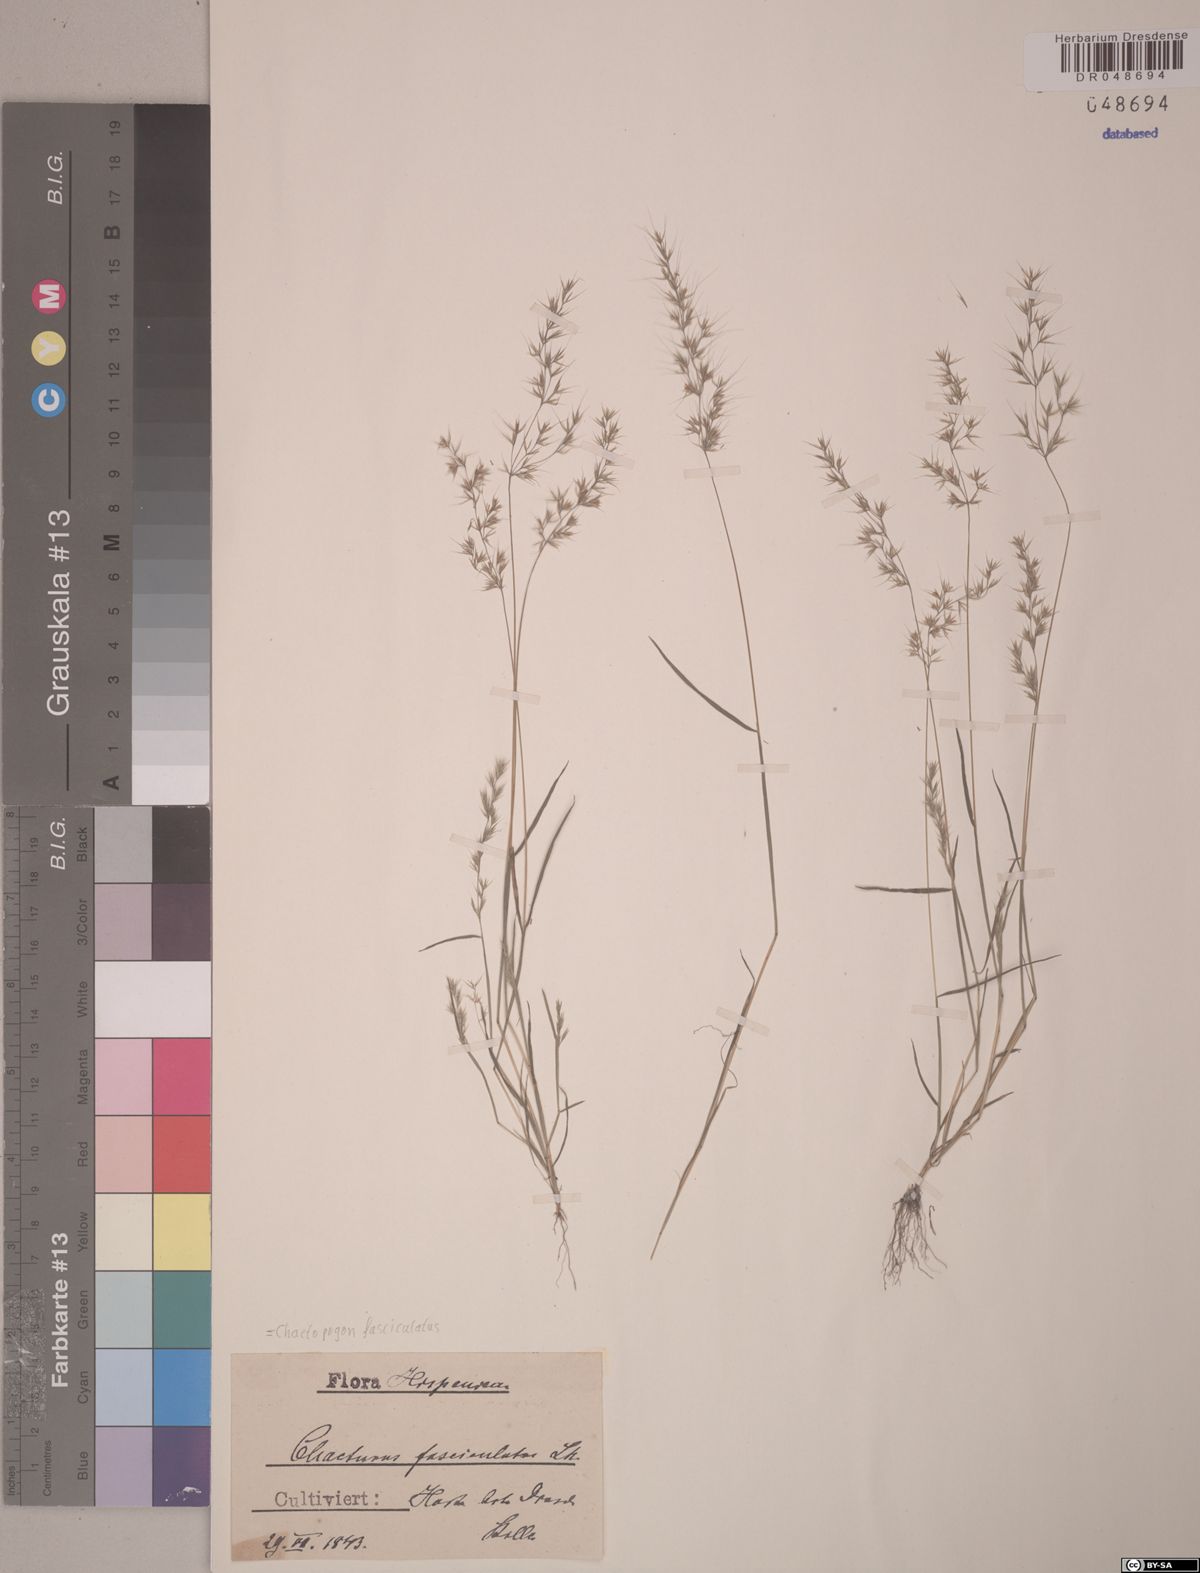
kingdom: Plantae
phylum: Tracheophyta
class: Liliopsida
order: Poales
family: Poaceae
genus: Agrostis
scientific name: Agrostis subspicata
